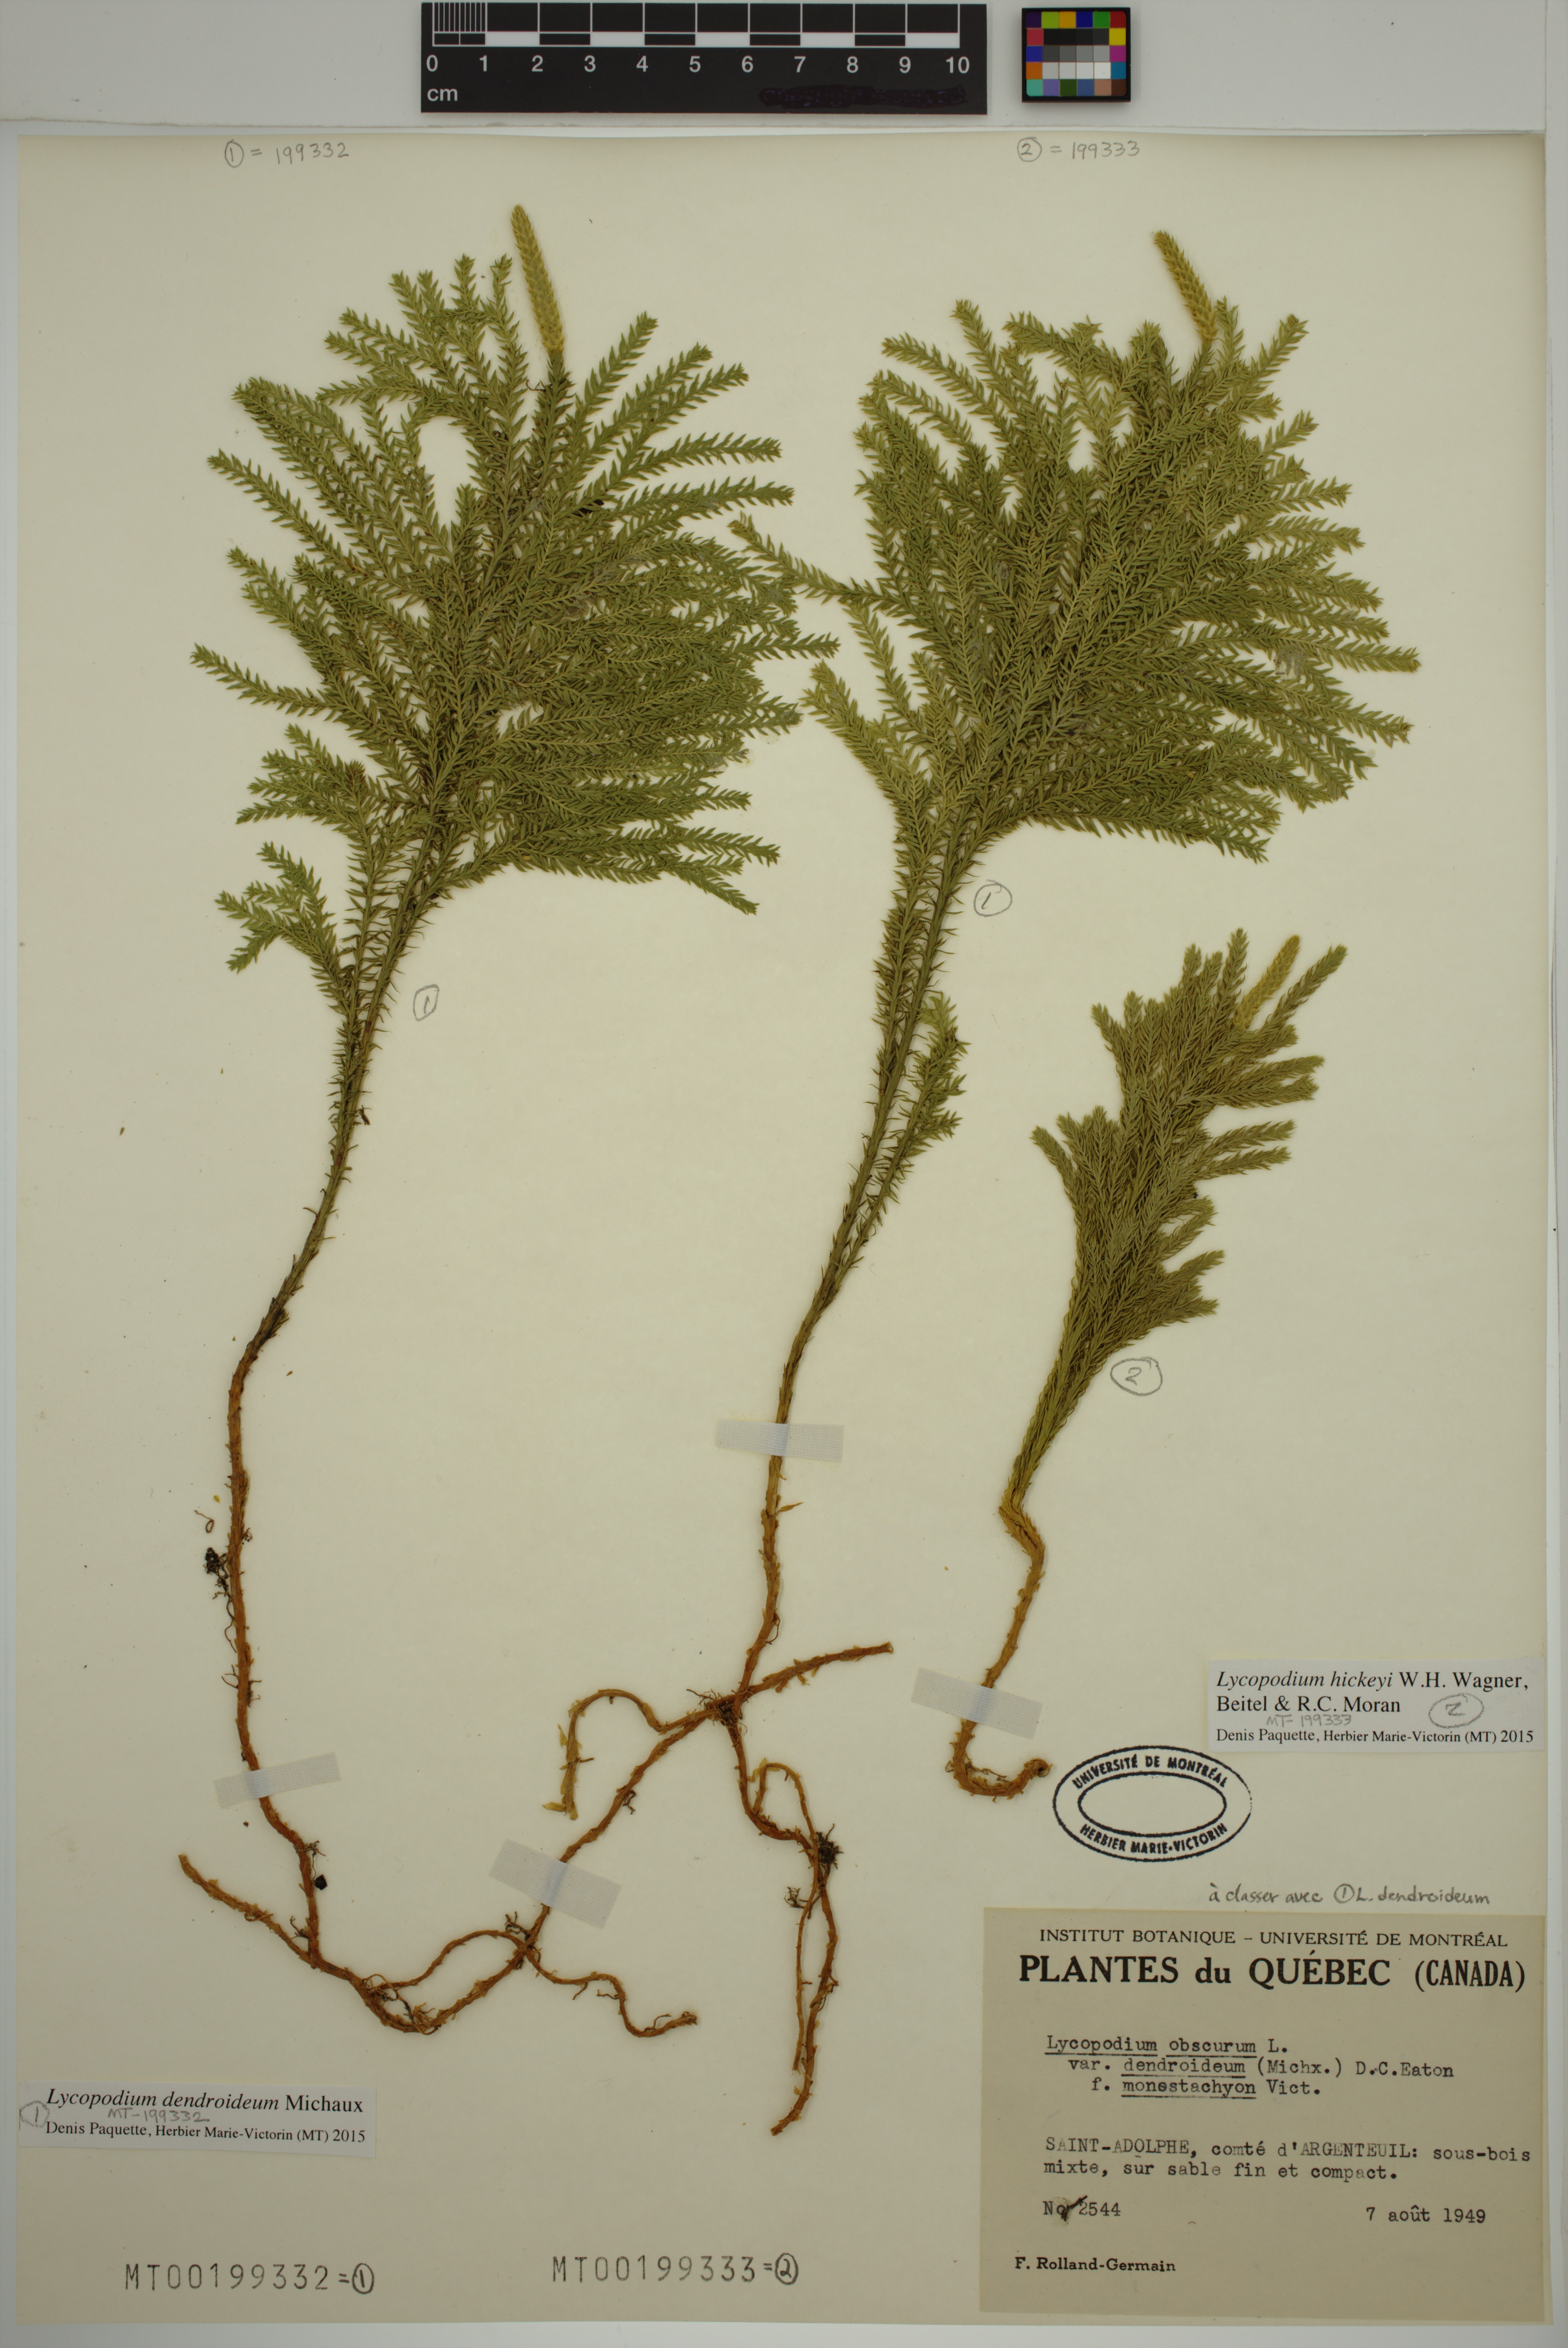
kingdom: Plantae
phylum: Tracheophyta
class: Lycopodiopsida
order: Lycopodiales
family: Lycopodiaceae
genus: Dendrolycopodium
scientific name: Dendrolycopodium hickeyi
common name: Hickey's clubmoss
